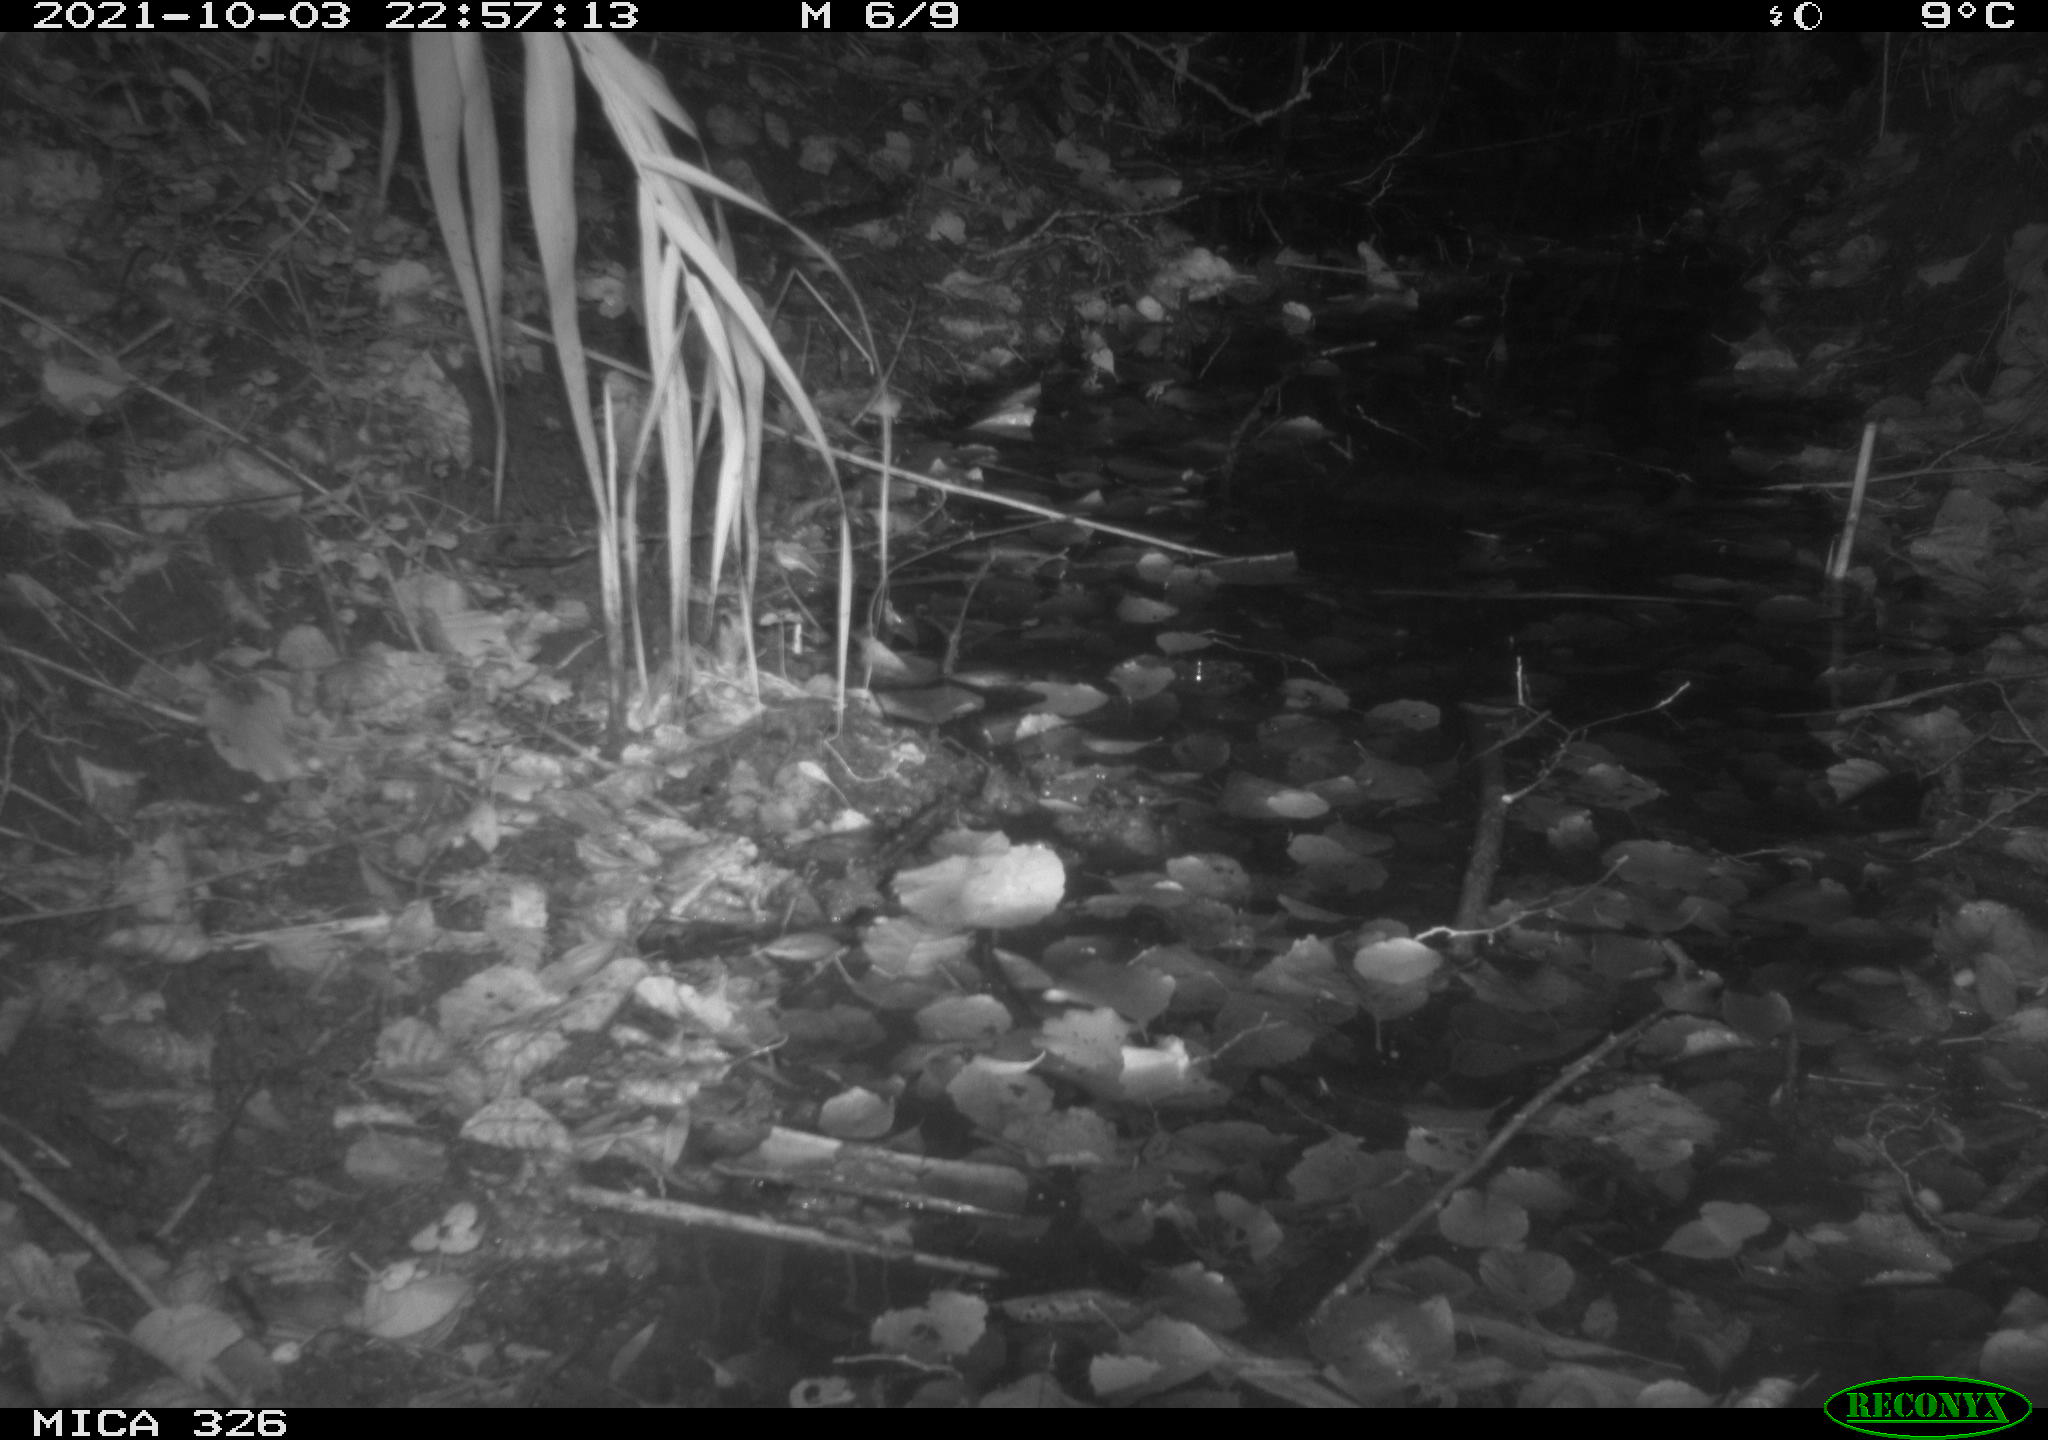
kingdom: Animalia
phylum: Chordata
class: Mammalia
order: Rodentia
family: Myocastoridae
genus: Myocastor
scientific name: Myocastor coypus
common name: Coypu
